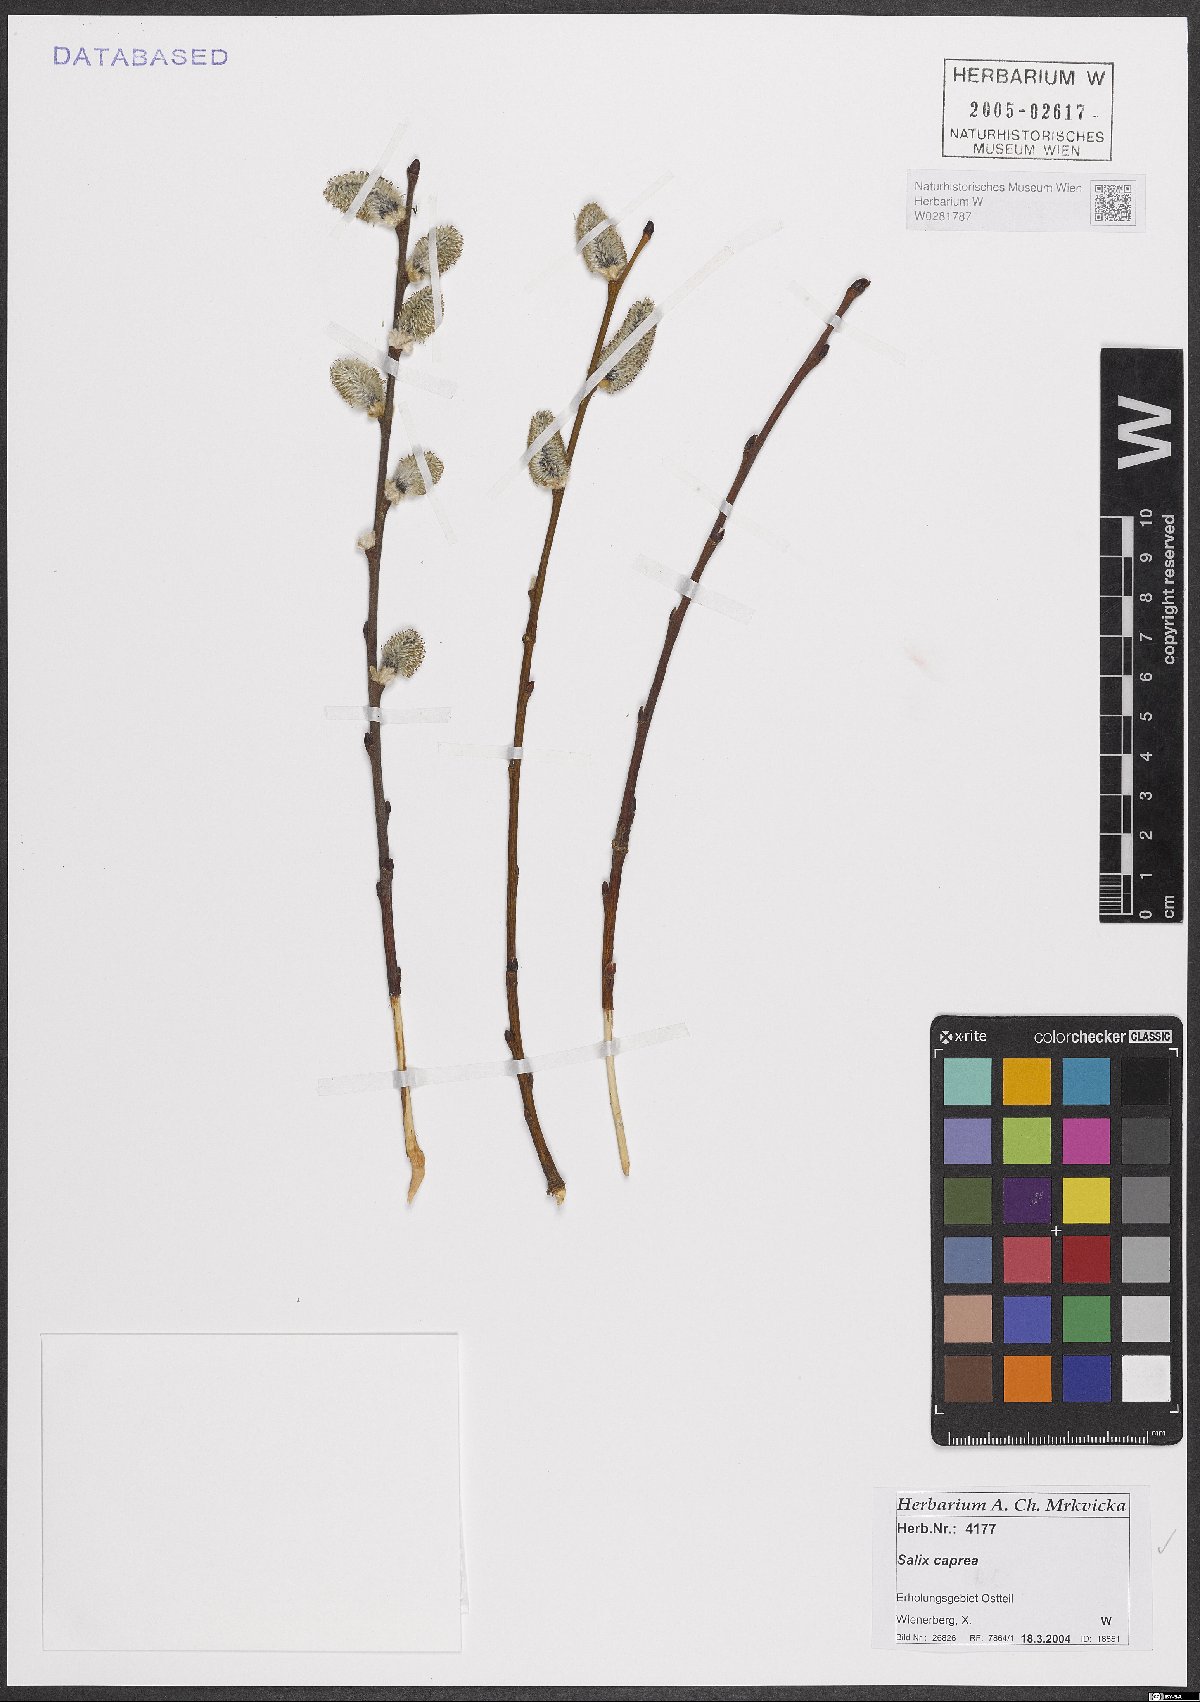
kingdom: Plantae
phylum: Tracheophyta
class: Magnoliopsida
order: Malpighiales
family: Salicaceae
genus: Salix
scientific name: Salix caprea
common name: Goat willow
